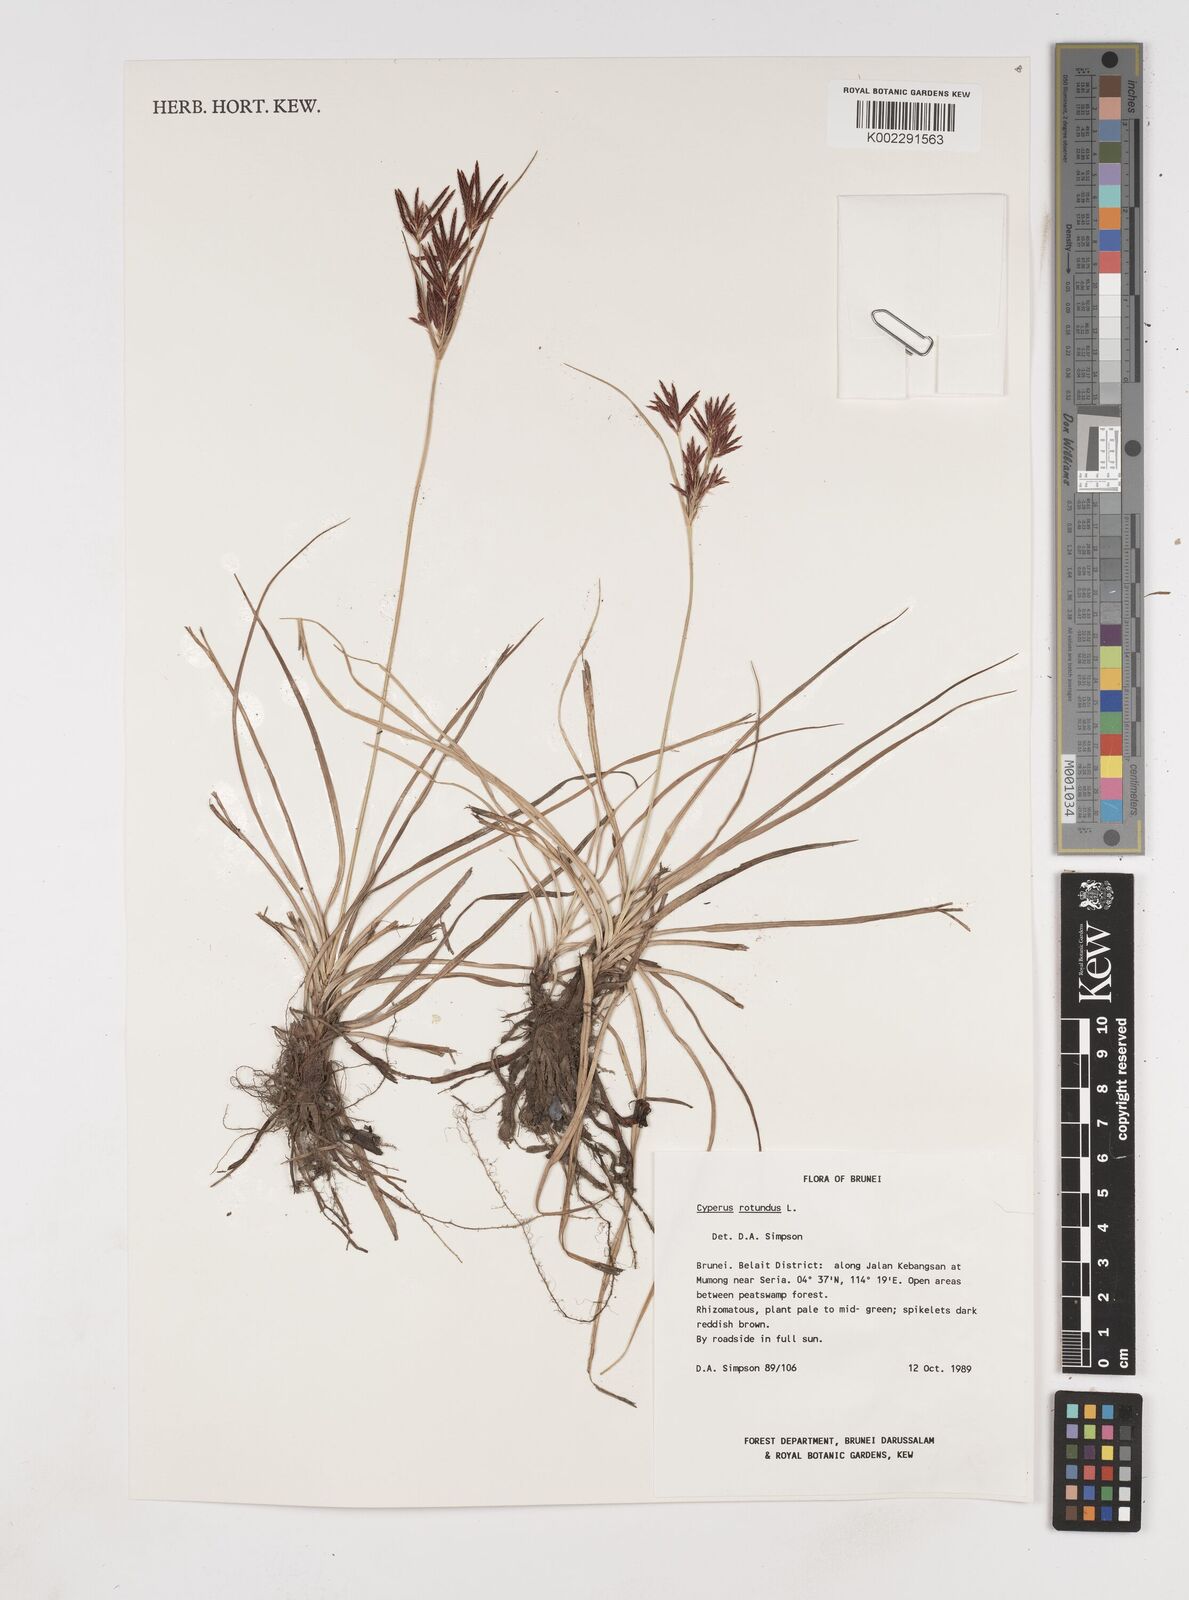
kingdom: Plantae
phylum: Tracheophyta
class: Liliopsida
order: Poales
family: Cyperaceae
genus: Cyperus
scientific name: Cyperus rotundus
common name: Nutgrass
